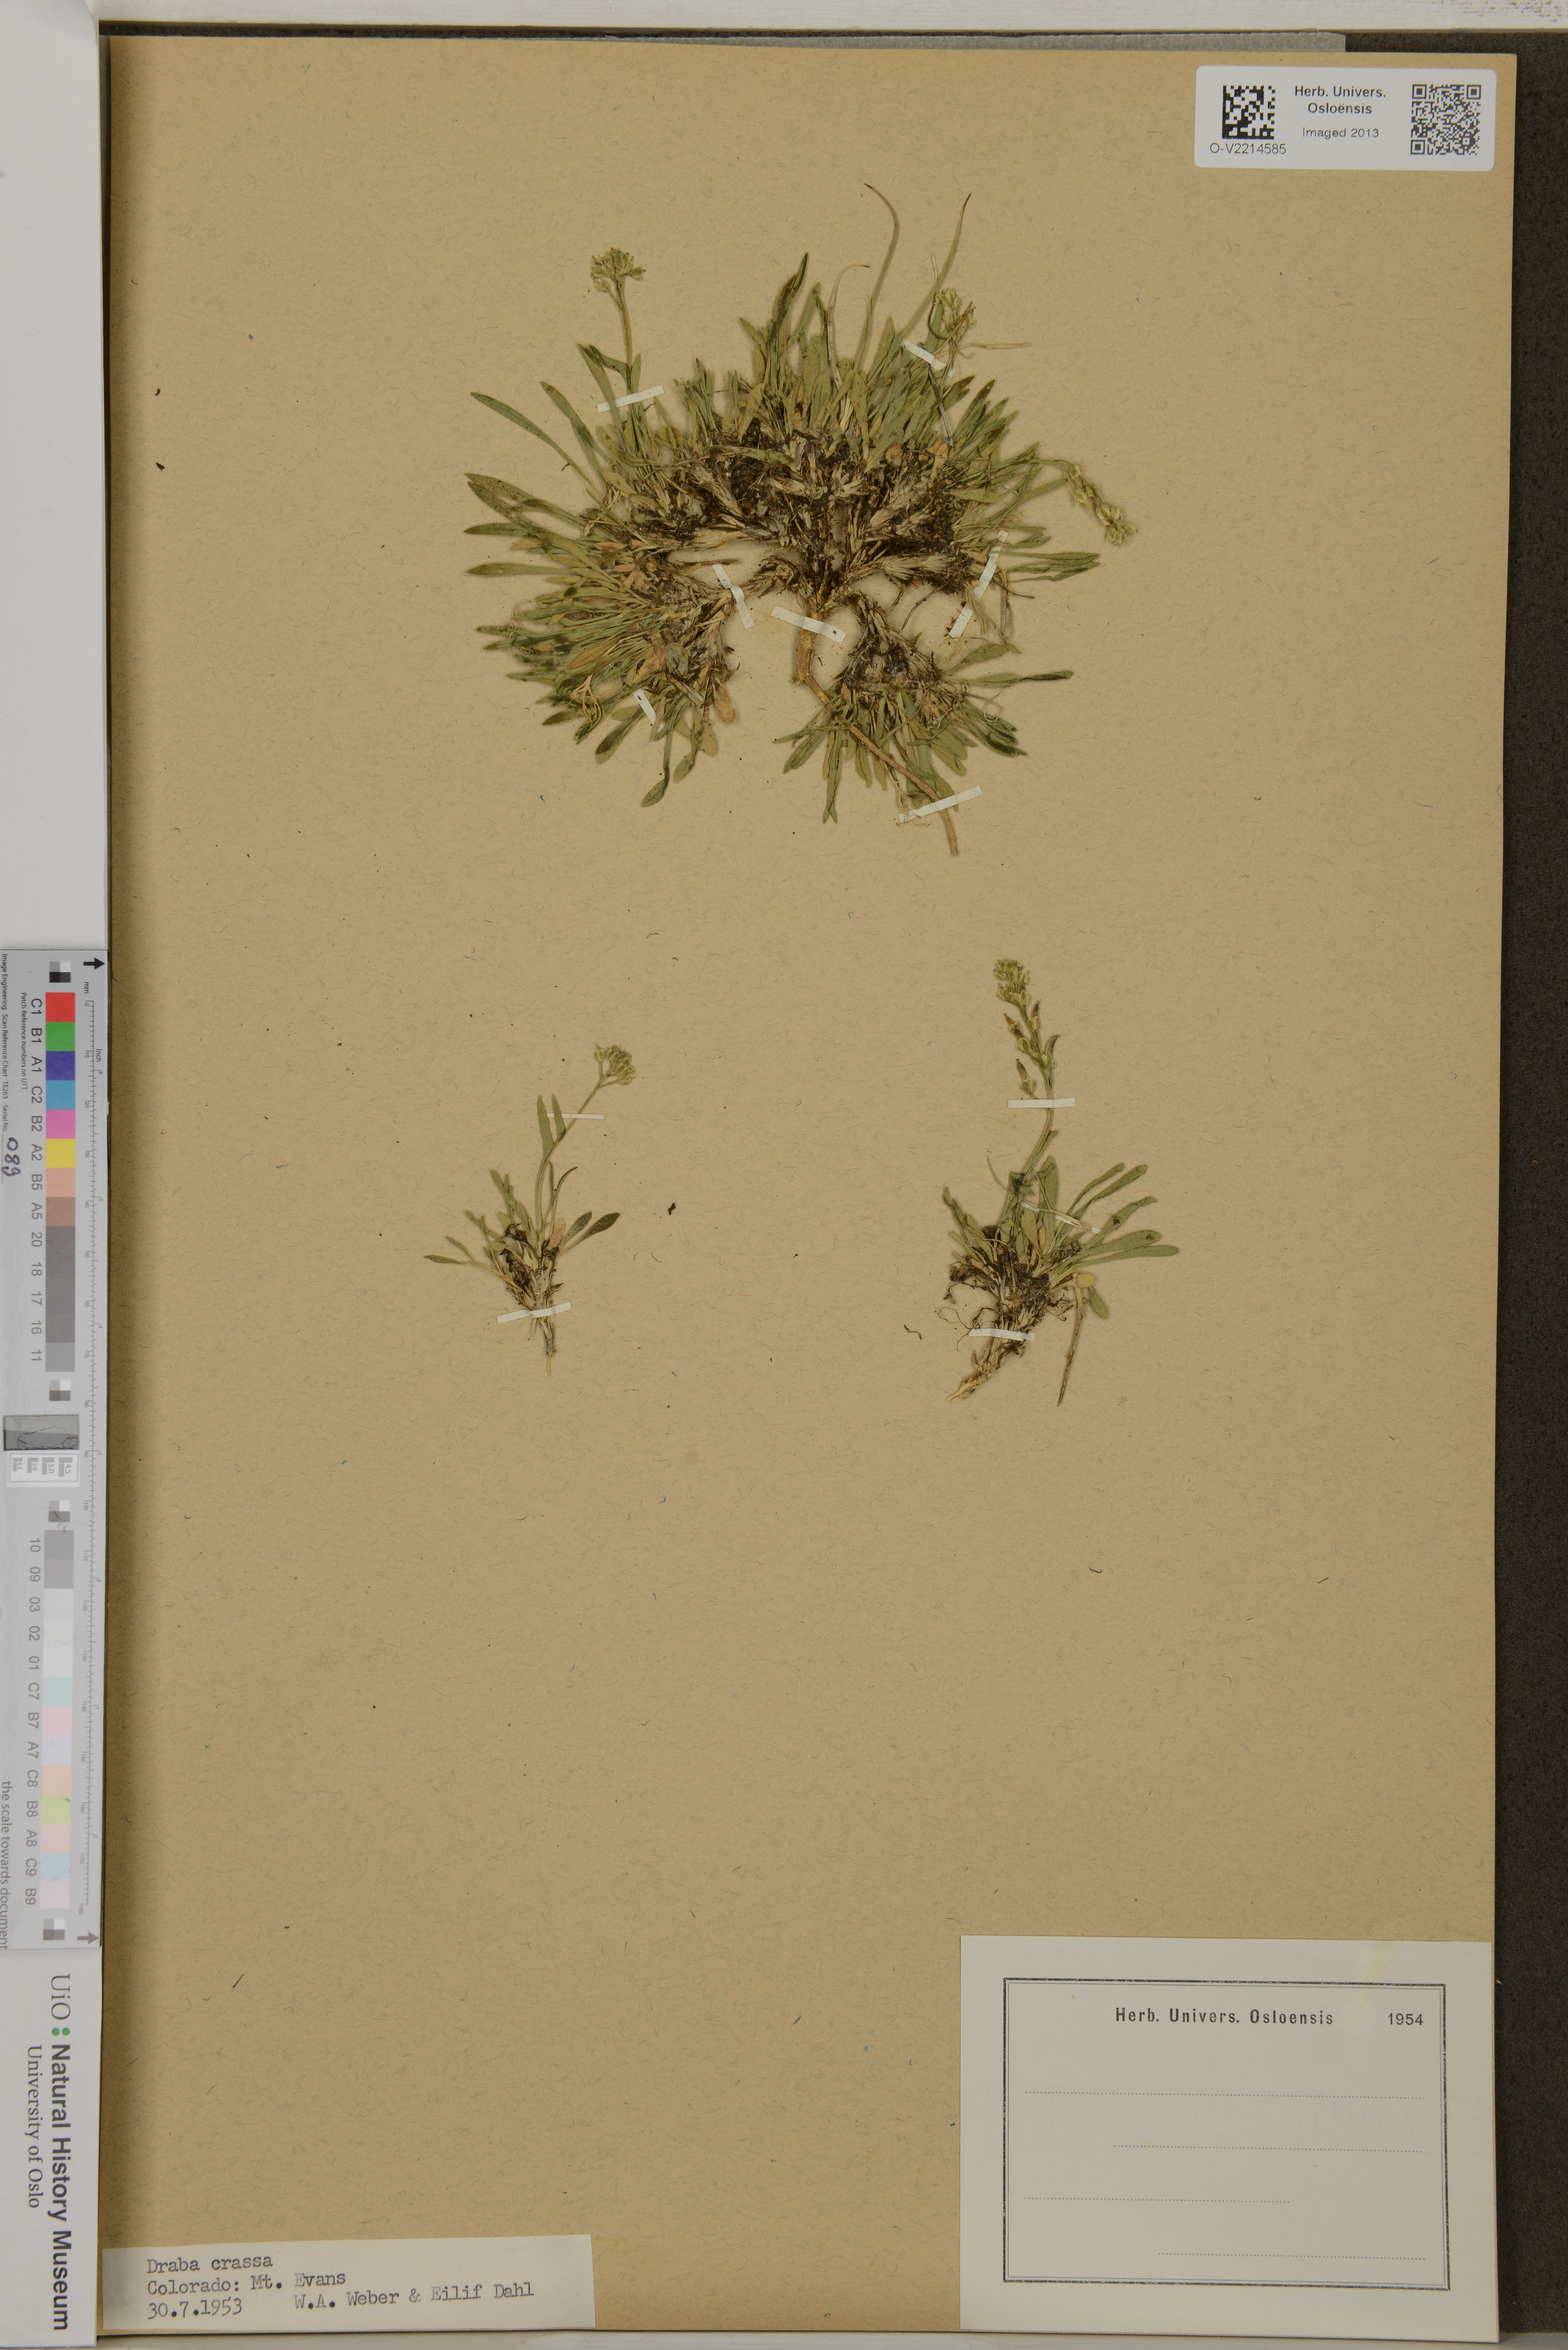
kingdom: Plantae
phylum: Tracheophyta
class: Magnoliopsida
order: Brassicales
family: Brassicaceae
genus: Draba
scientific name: Draba crassa
